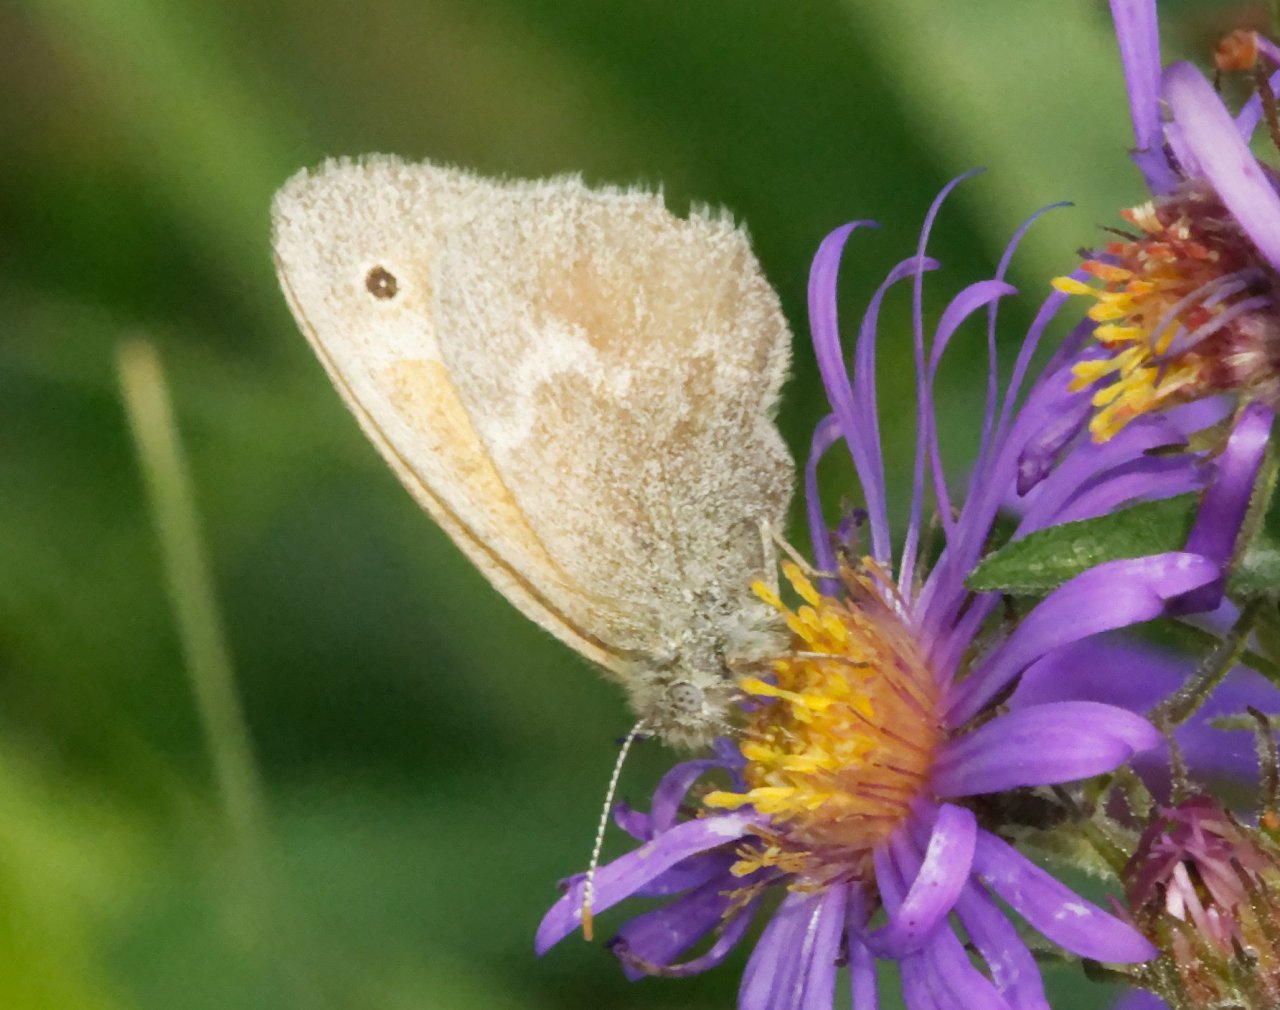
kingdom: Animalia
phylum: Arthropoda
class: Insecta
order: Lepidoptera
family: Nymphalidae
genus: Coenonympha
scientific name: Coenonympha tullia
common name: Large Heath
